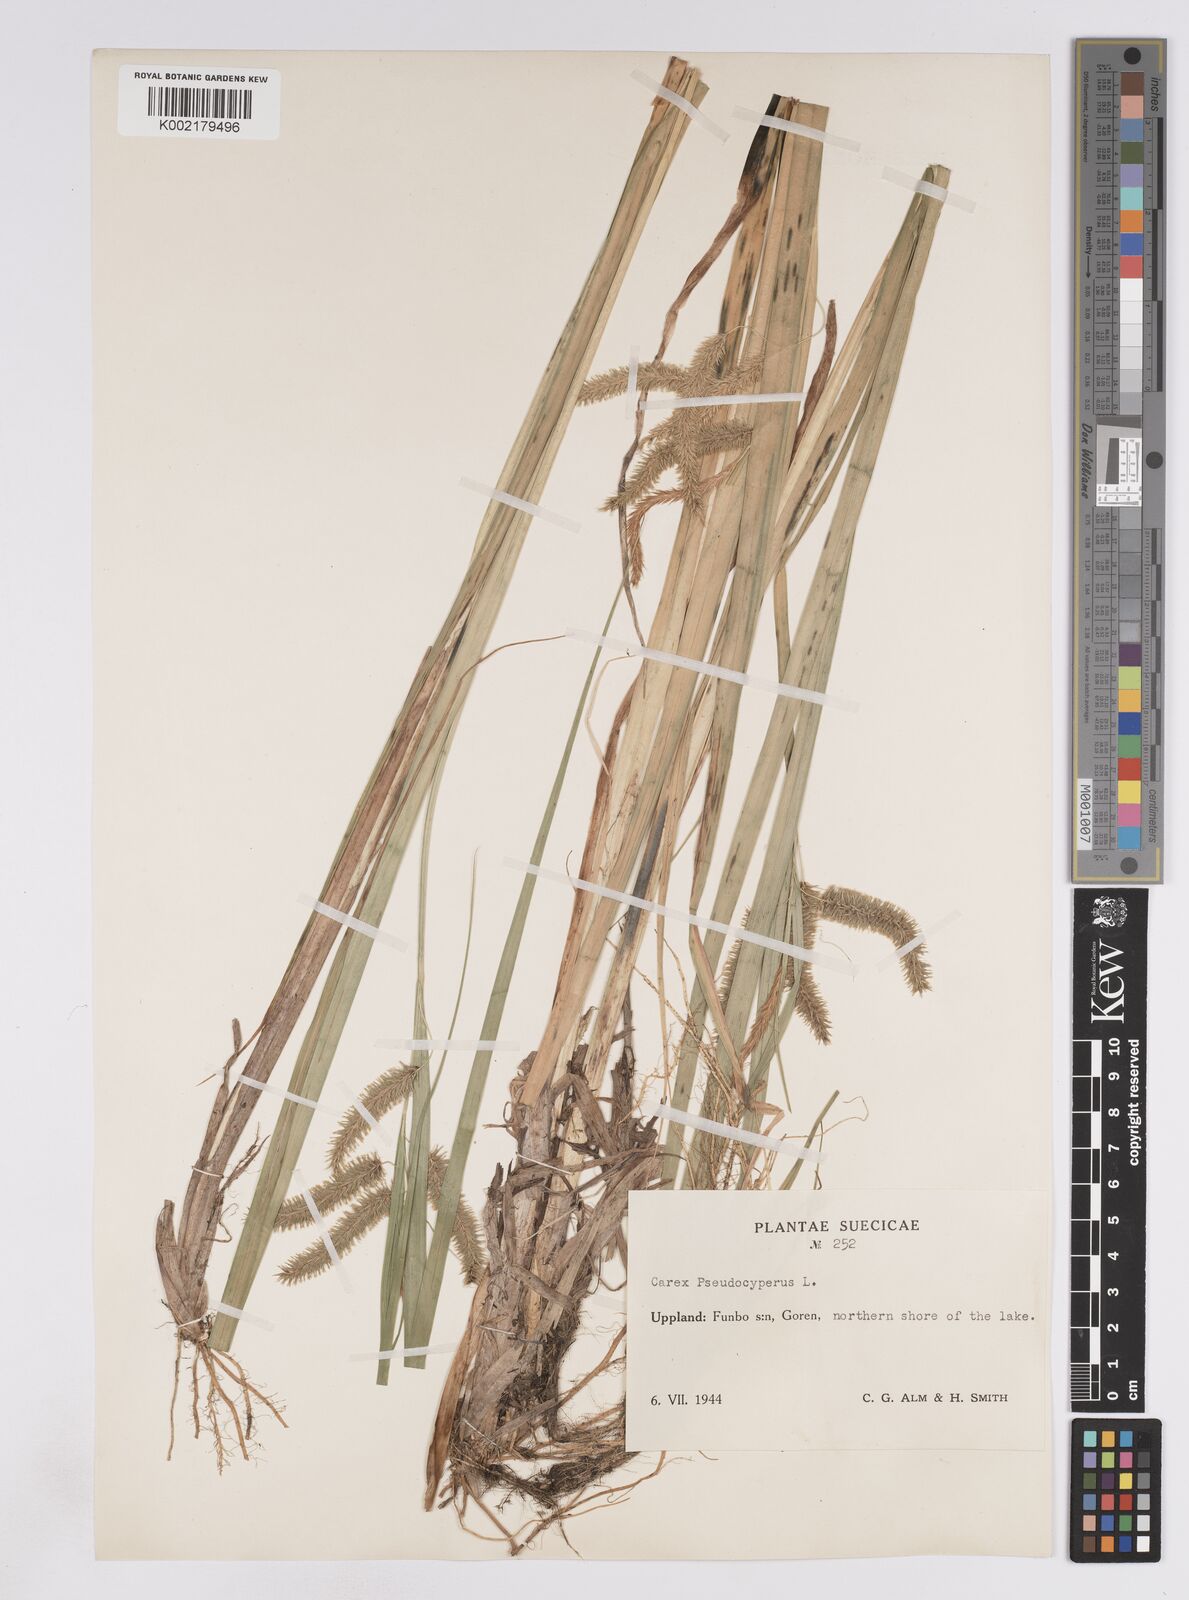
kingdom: Plantae
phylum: Tracheophyta
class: Liliopsida
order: Poales
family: Cyperaceae
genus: Carex
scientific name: Carex pseudocyperus
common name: Cyperus sedge
